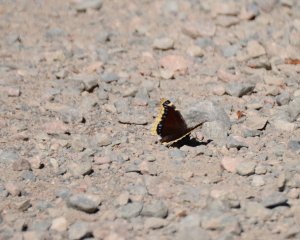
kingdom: Animalia
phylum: Arthropoda
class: Insecta
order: Lepidoptera
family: Nymphalidae
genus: Nymphalis
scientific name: Nymphalis antiopa
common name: Mourning Cloak
